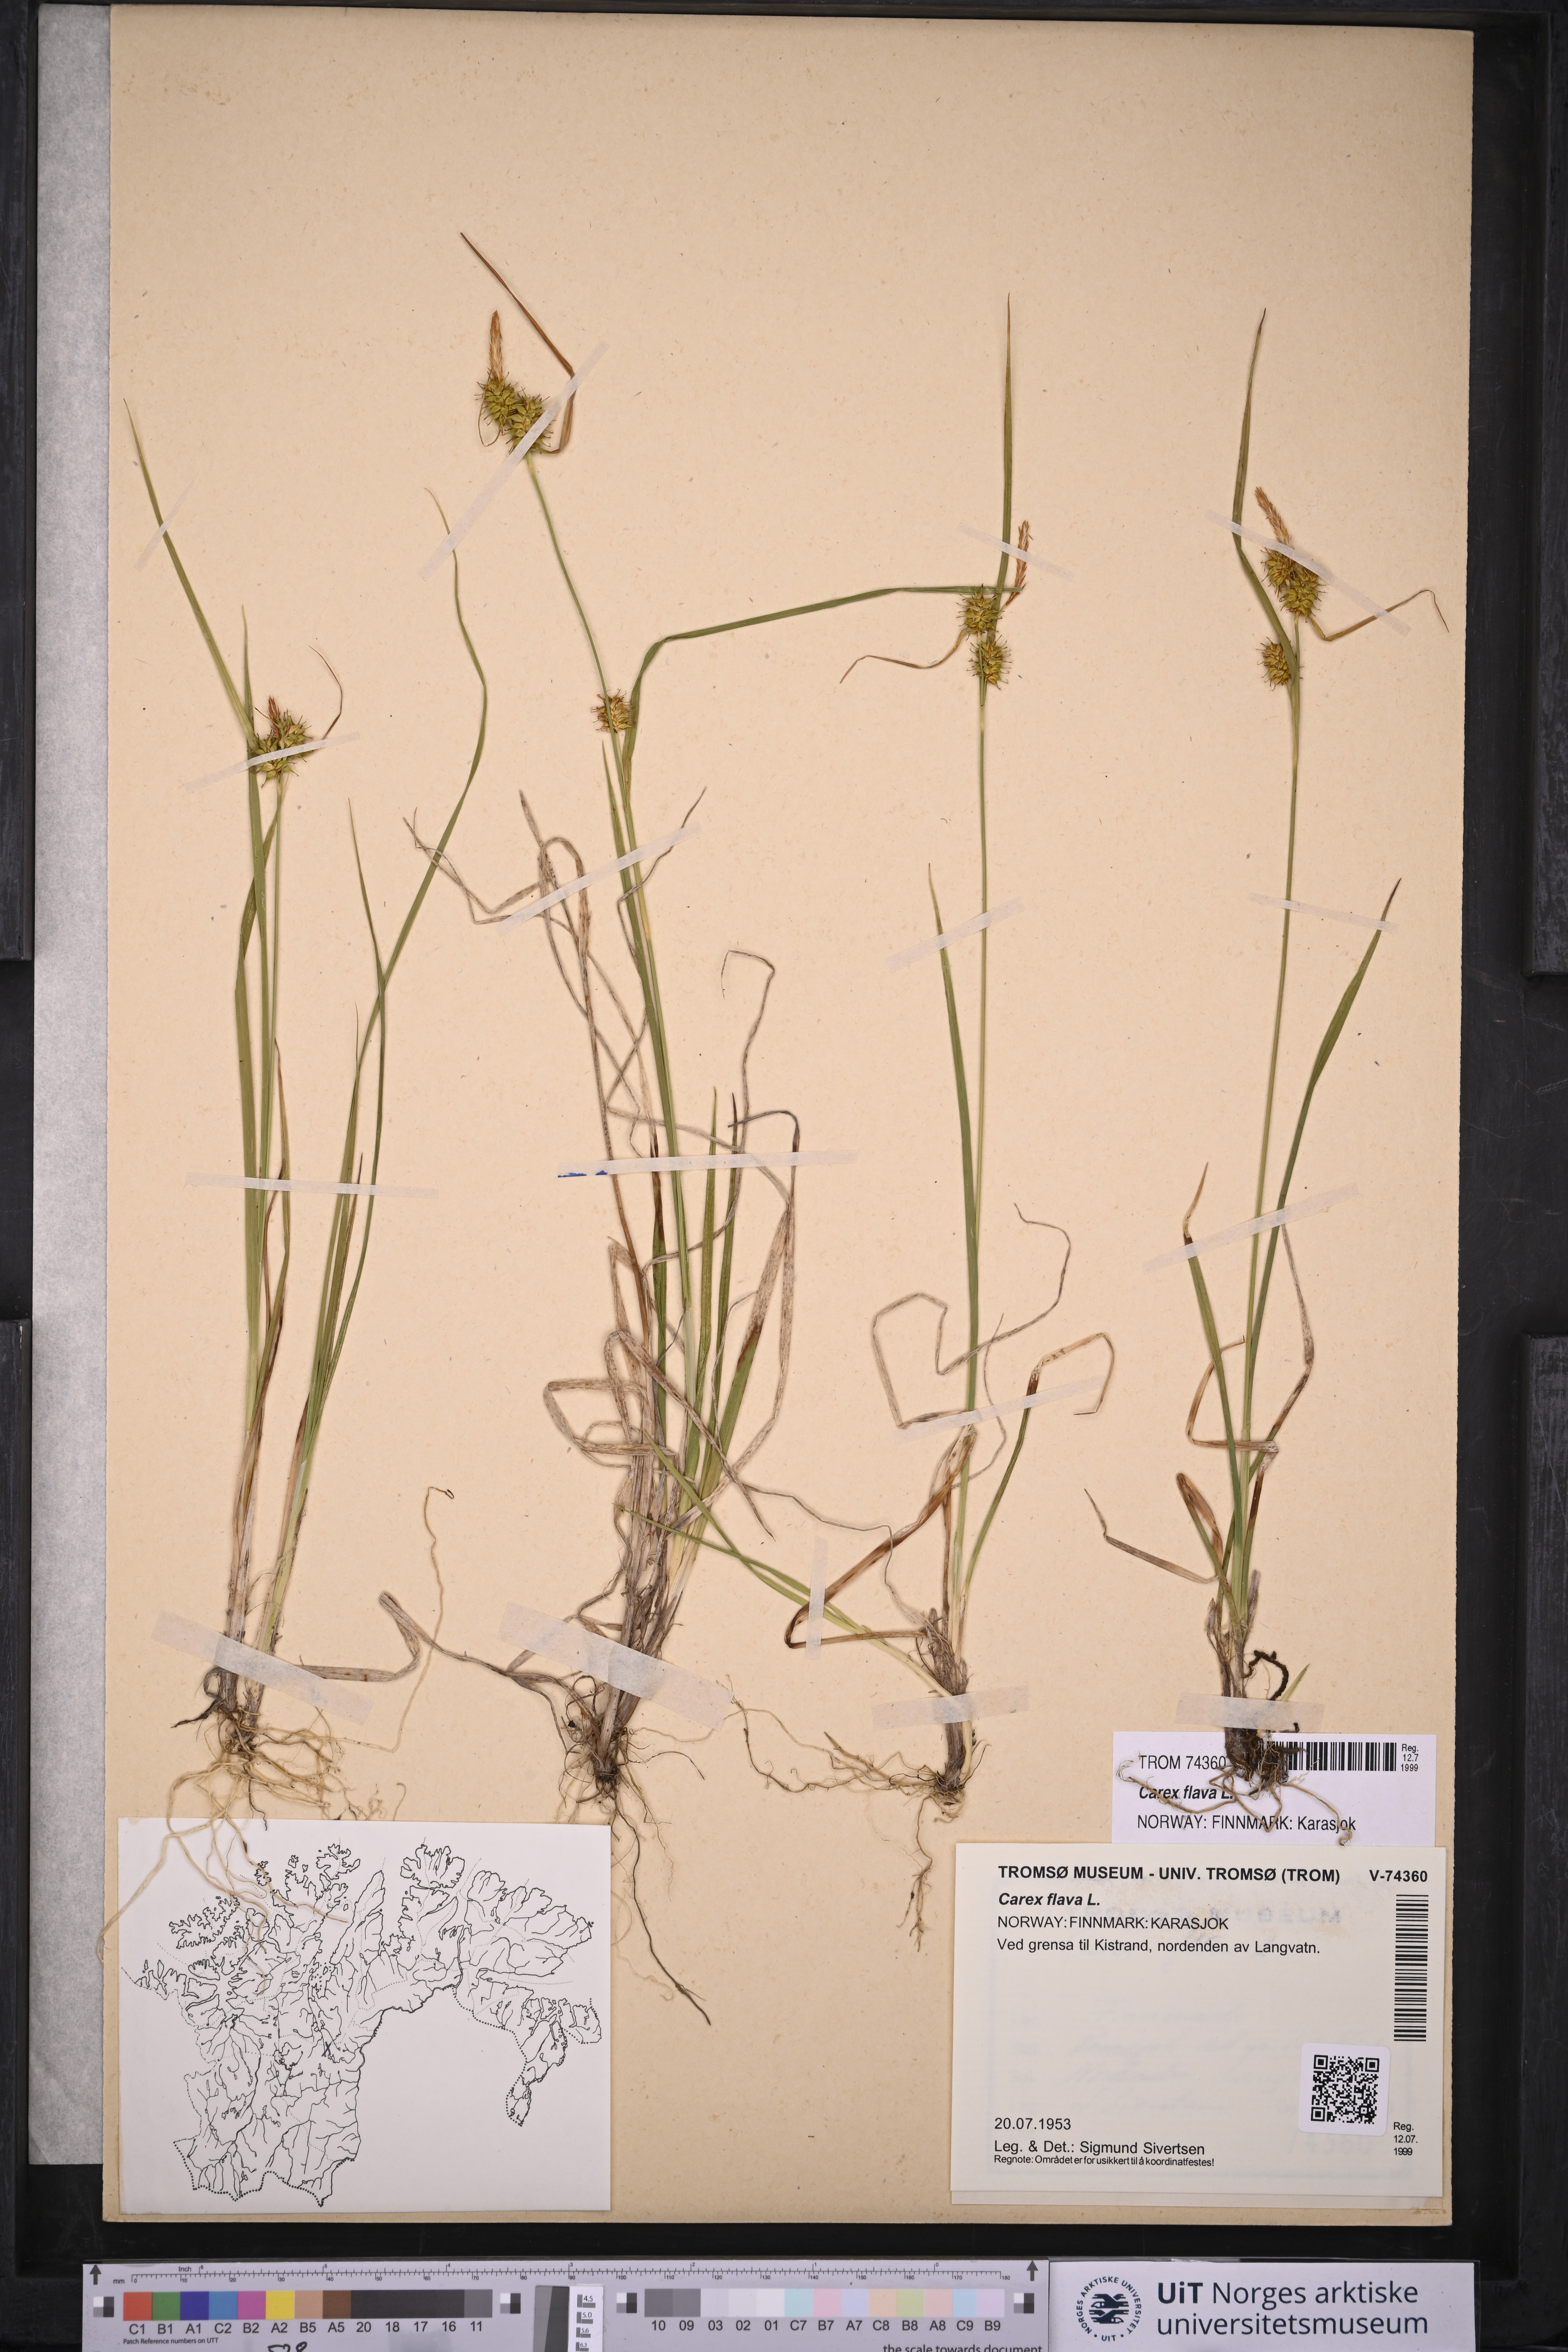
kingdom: Plantae
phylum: Tracheophyta
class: Liliopsida
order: Poales
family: Cyperaceae
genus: Carex
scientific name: Carex flava
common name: Large yellow-sedge
